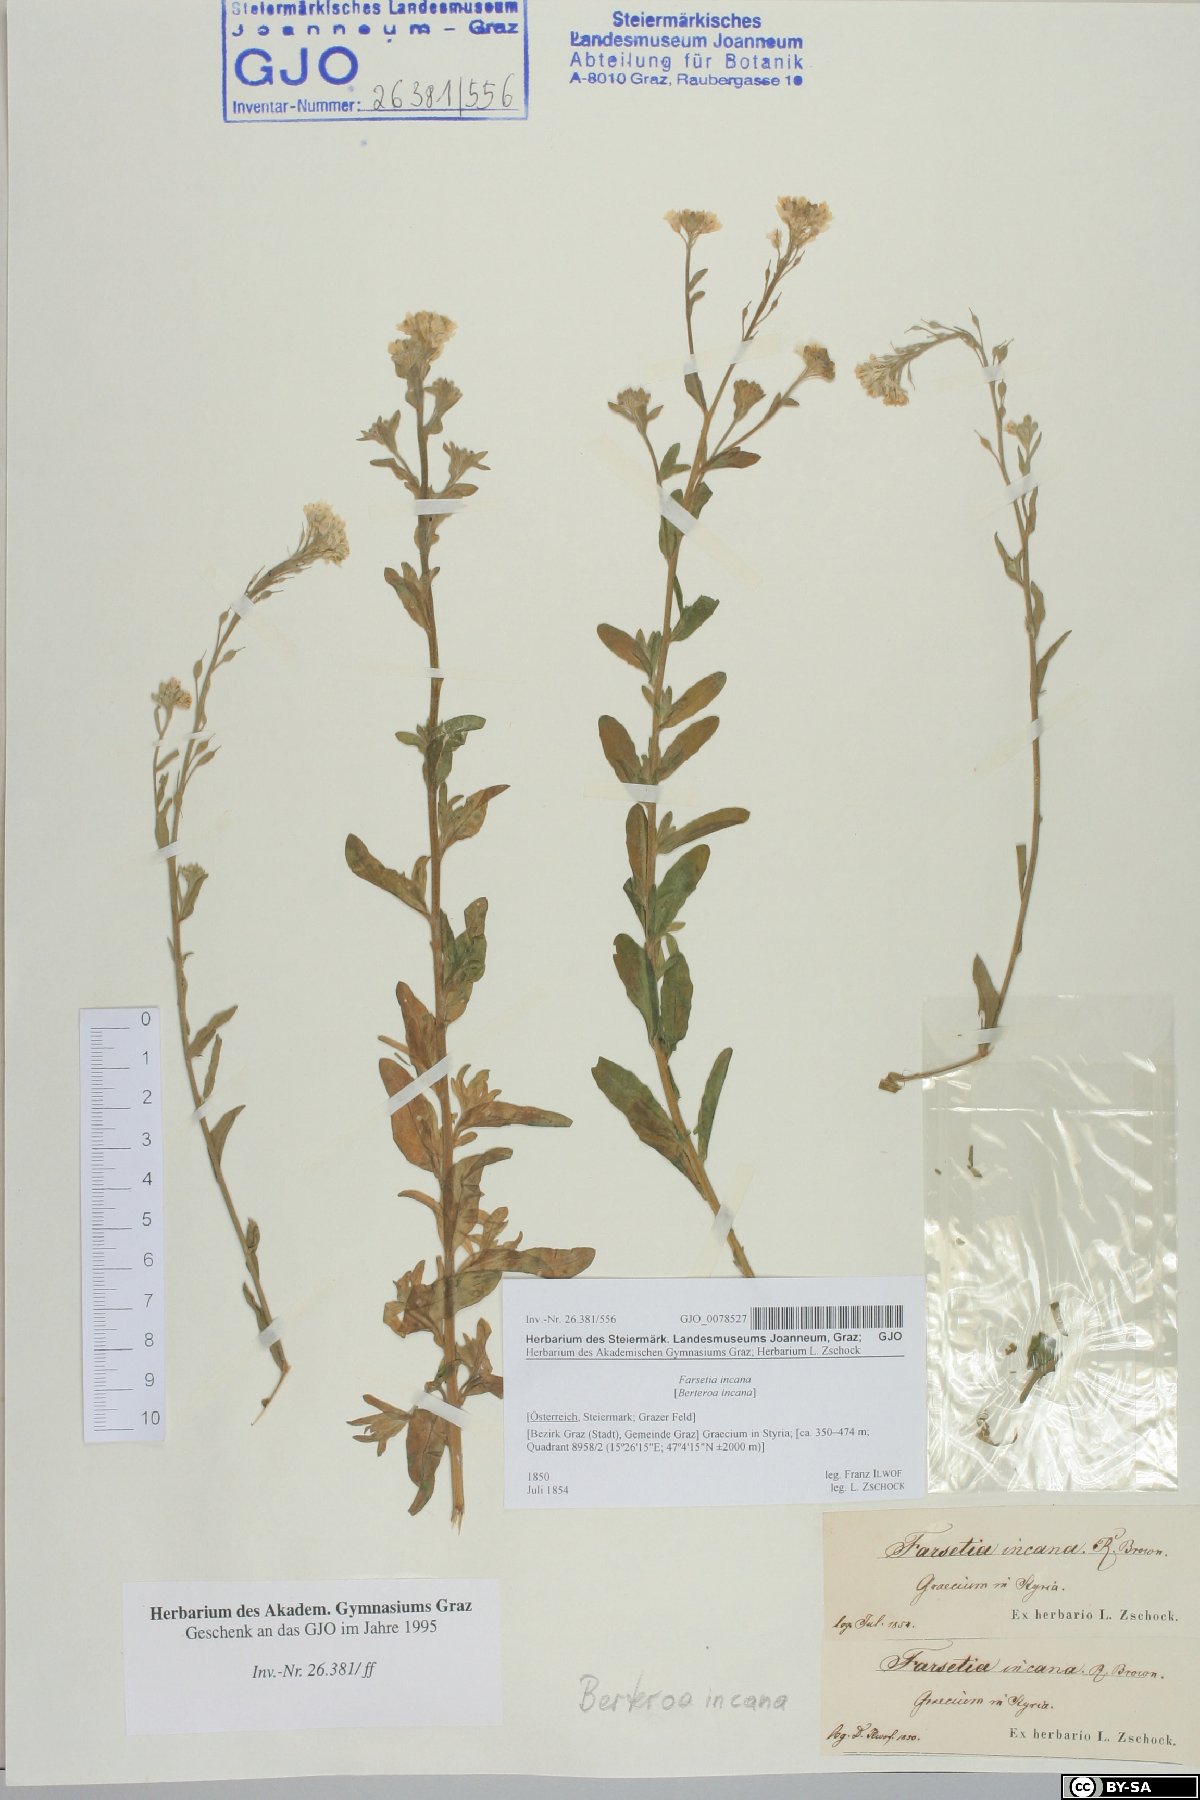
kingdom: Plantae
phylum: Tracheophyta
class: Magnoliopsida
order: Brassicales
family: Brassicaceae
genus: Berteroa
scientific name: Berteroa incana
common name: Hoary alison
